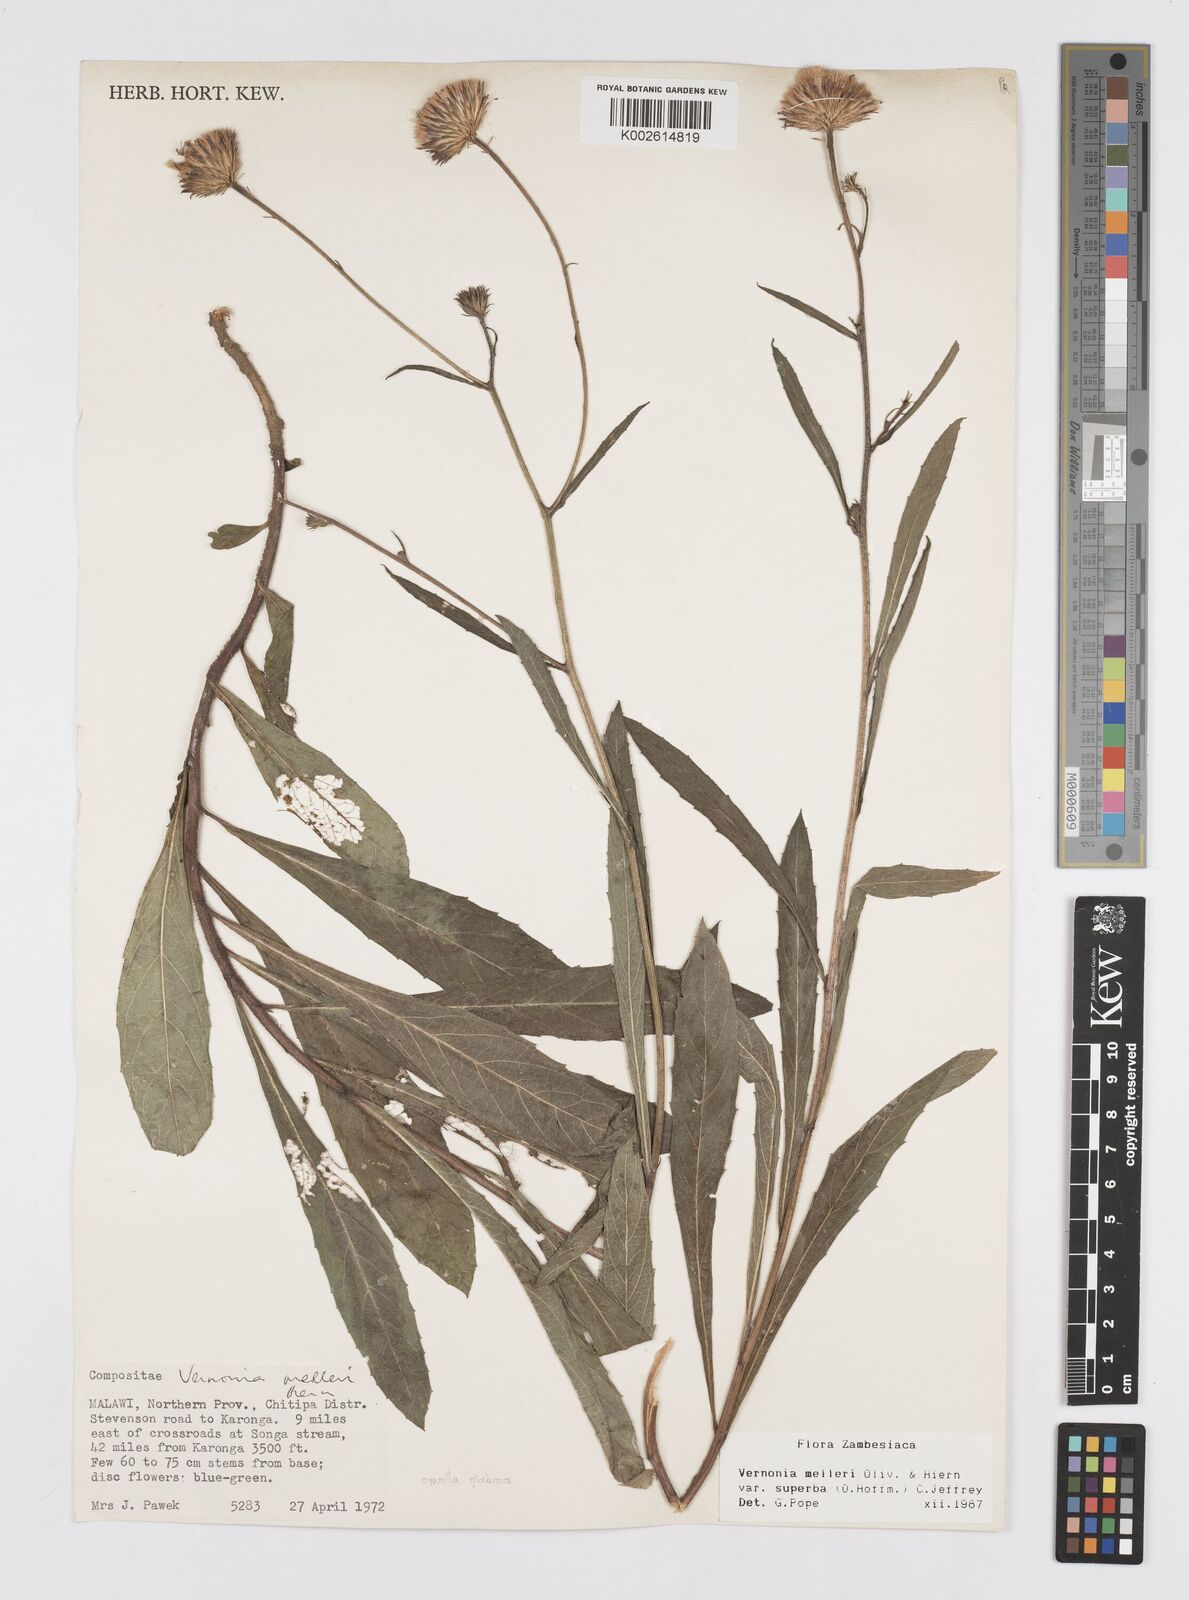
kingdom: Plantae
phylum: Tracheophyta
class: Magnoliopsida
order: Asterales
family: Asteraceae
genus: Linzia
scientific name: Linzia melleri
